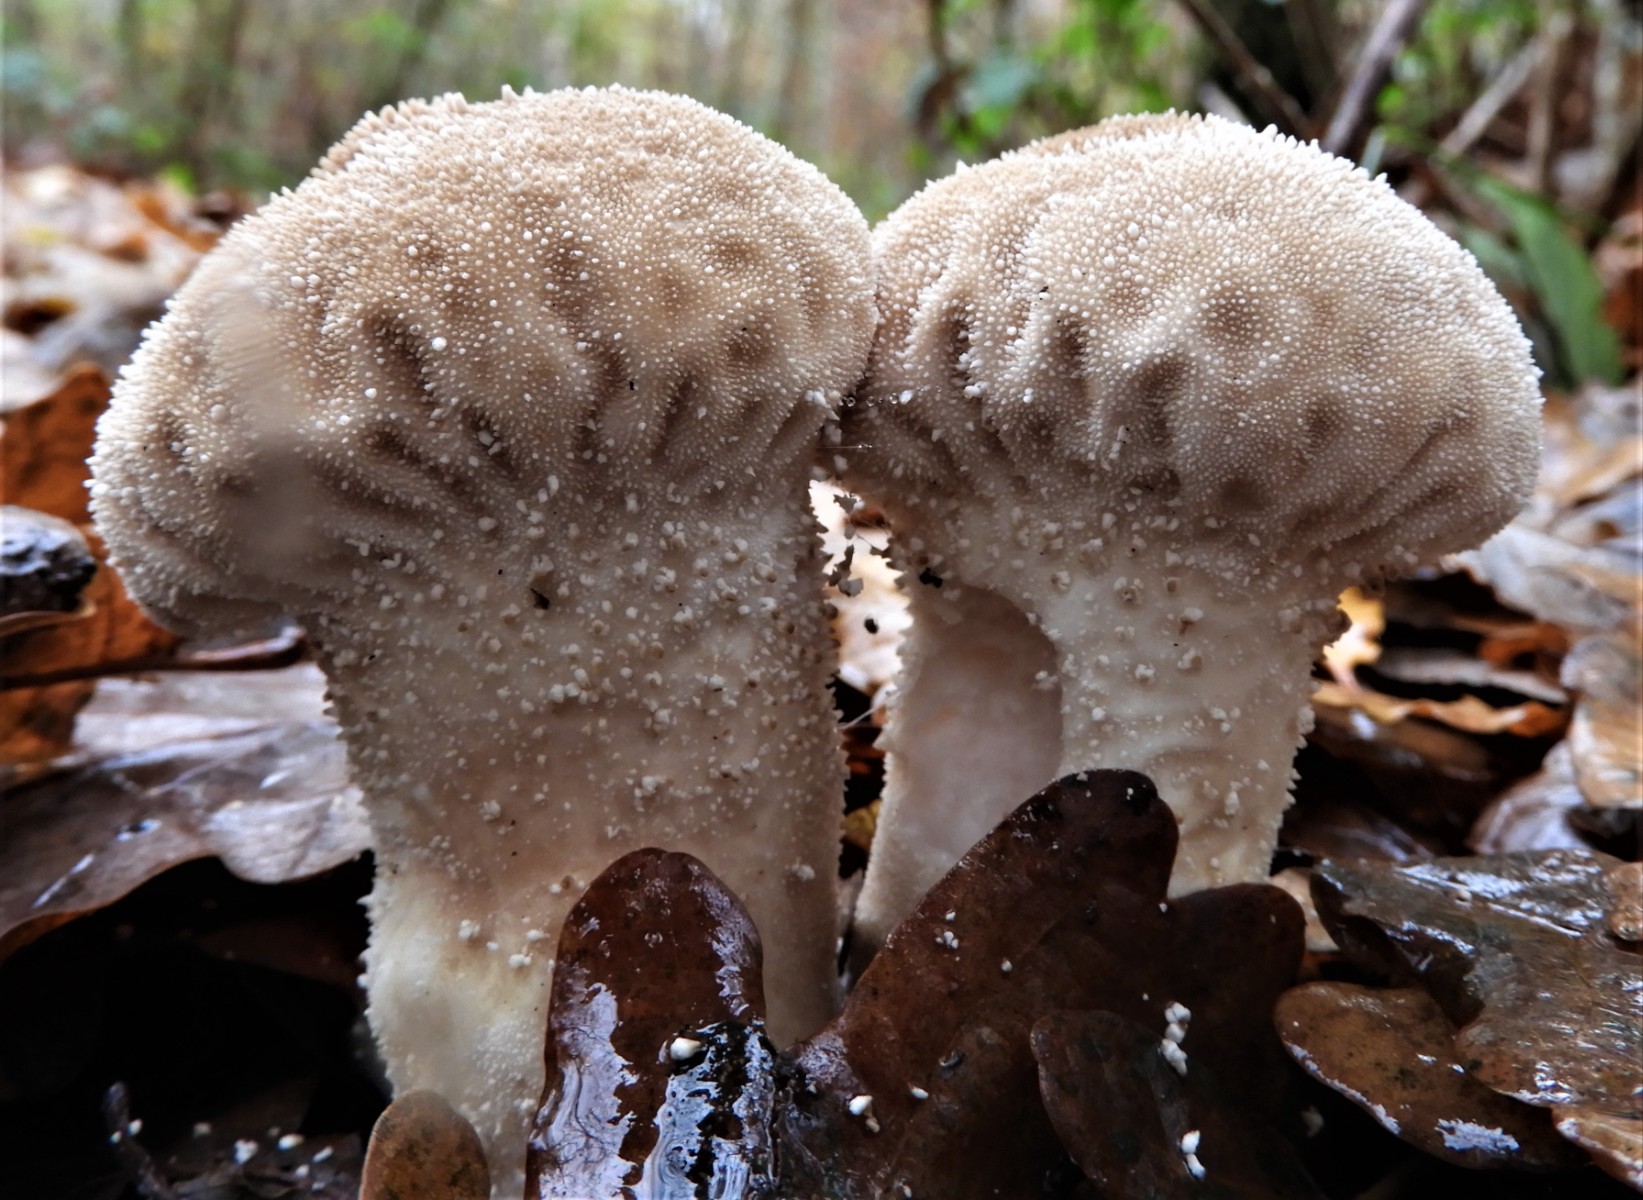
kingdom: Fungi
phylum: Basidiomycota
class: Agaricomycetes
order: Agaricales
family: Lycoperdaceae
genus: Lycoperdon
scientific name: Lycoperdon excipuliforme
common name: højstokket støvbold
